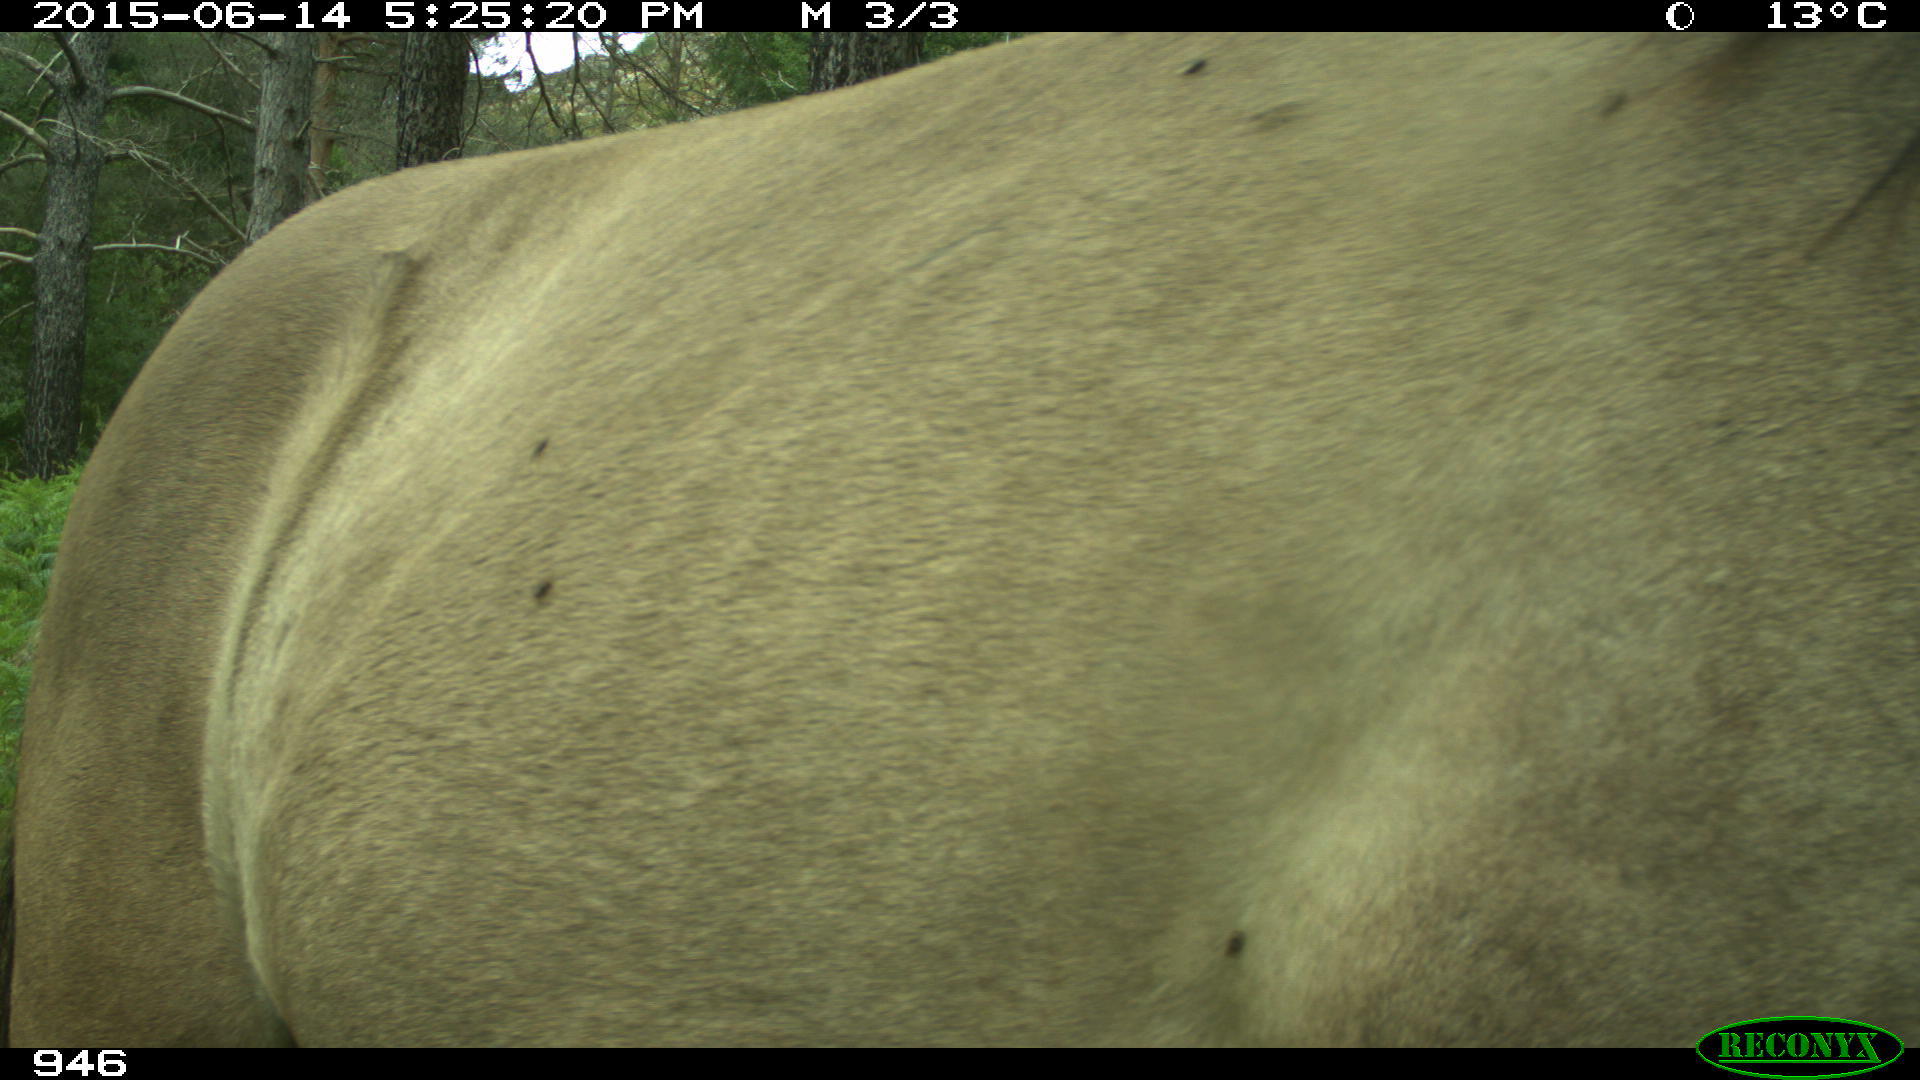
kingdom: Animalia
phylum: Chordata
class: Mammalia
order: Perissodactyla
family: Equidae
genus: Equus
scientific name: Equus caballus
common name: Horse
